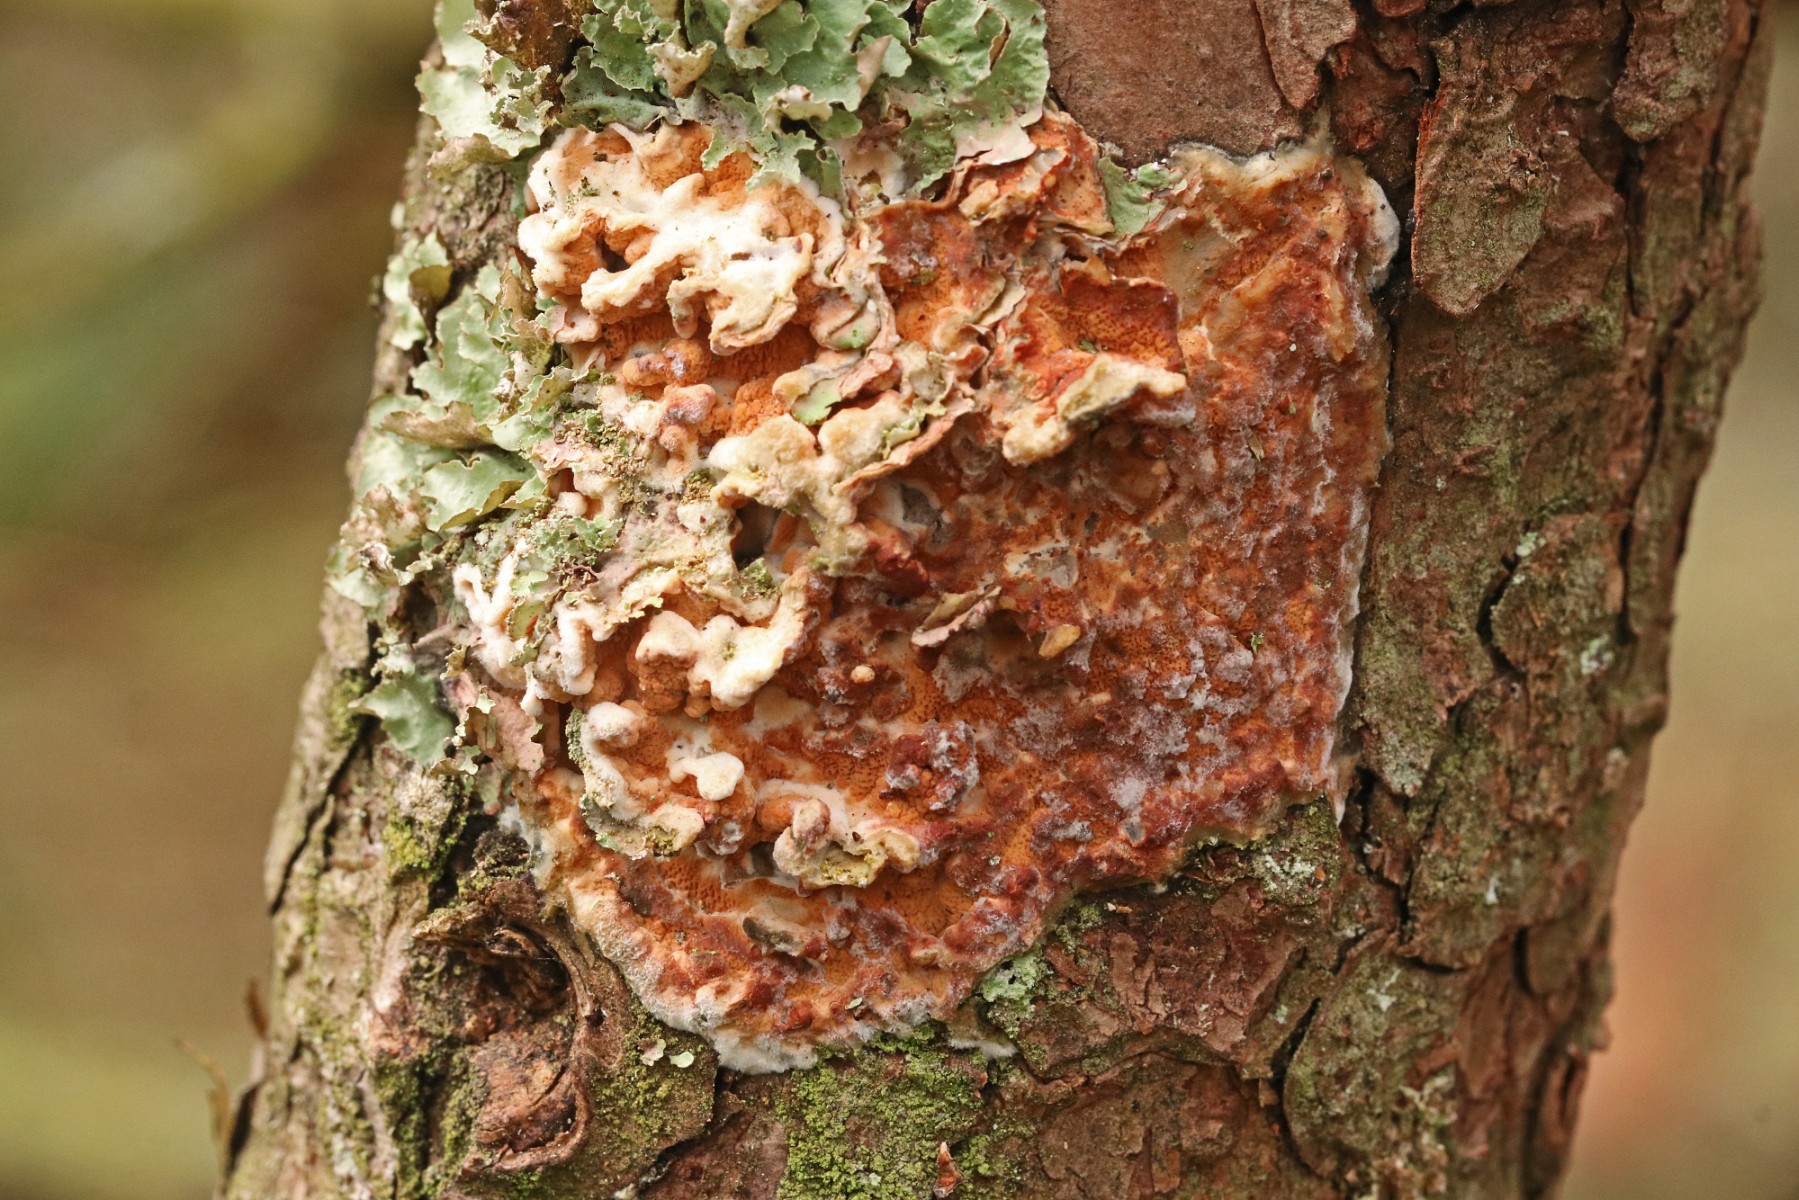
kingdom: Fungi
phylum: Basidiomycota
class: Agaricomycetes
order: Polyporales
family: Irpicaceae
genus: Meruliopsis
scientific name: Meruliopsis taxicola
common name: purpurbrun foldporesvamp
